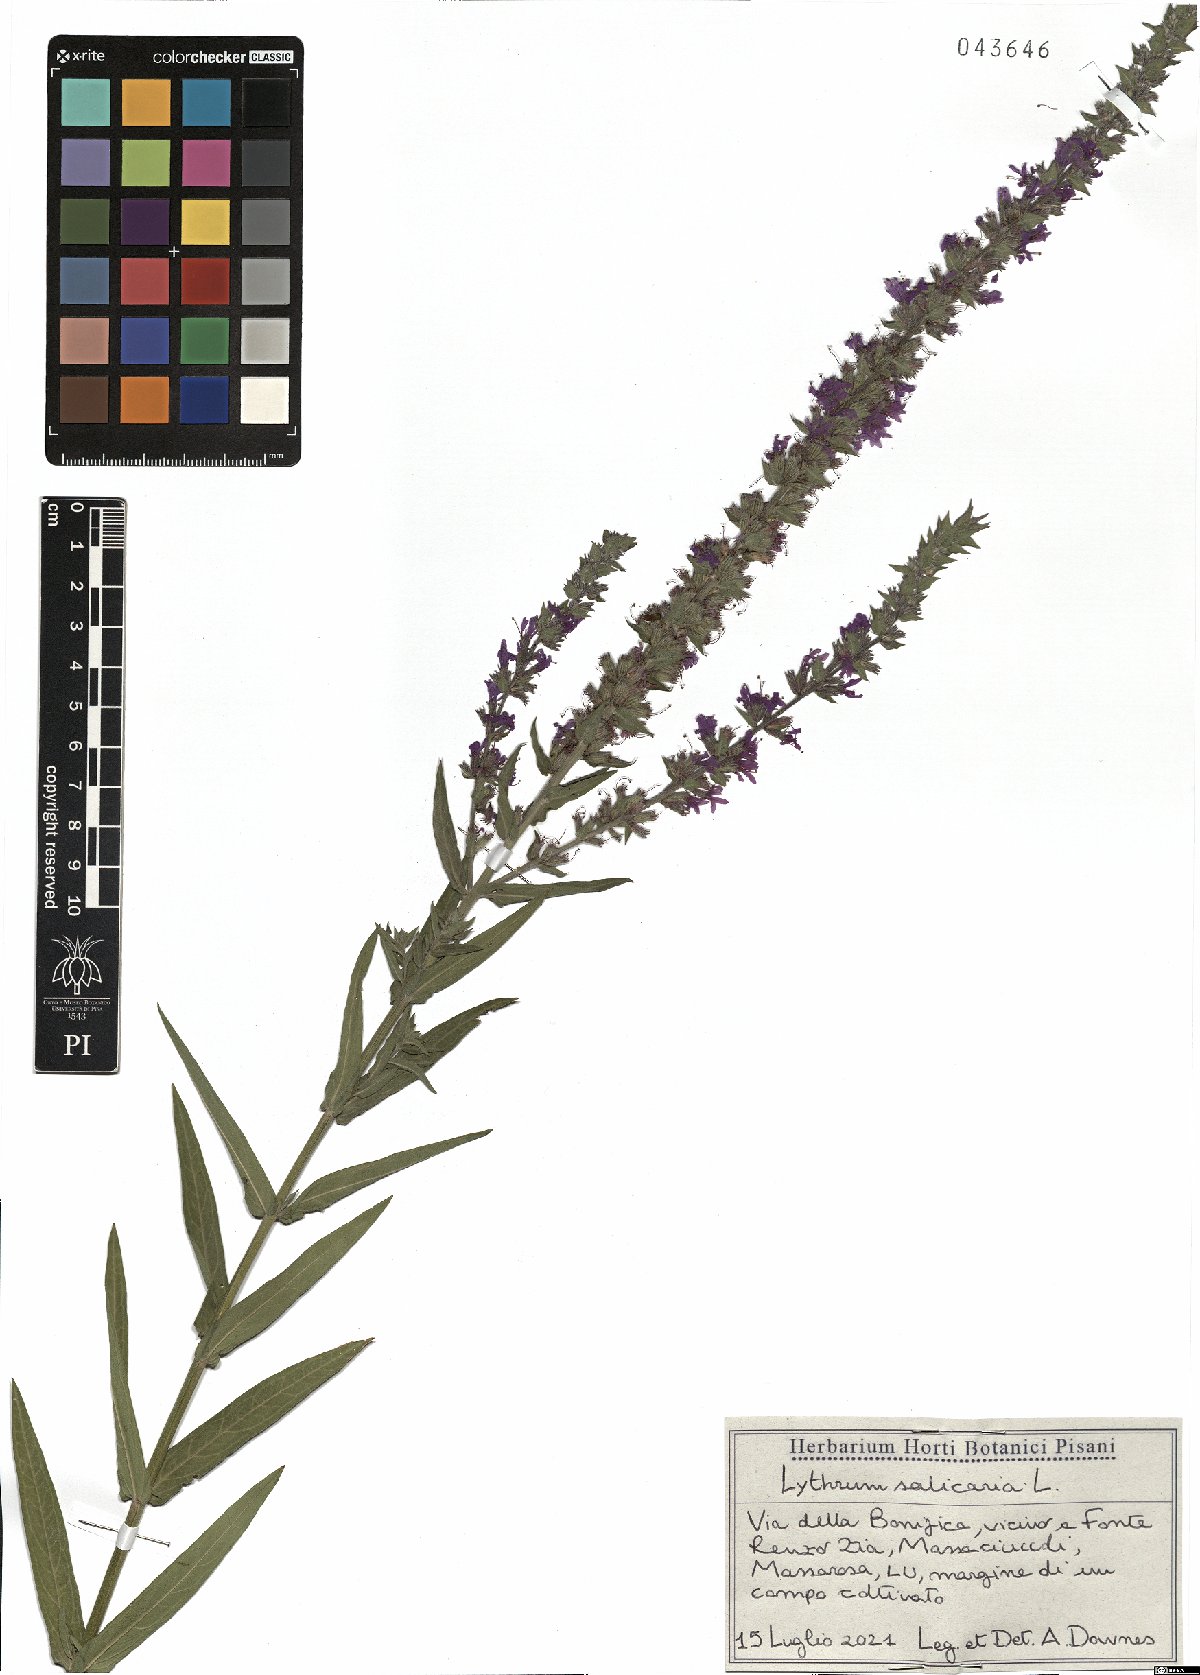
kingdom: Plantae
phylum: Tracheophyta
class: Magnoliopsida
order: Myrtales
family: Lythraceae
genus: Lythrum
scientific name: Lythrum salicaria
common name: Purple loosestrife
